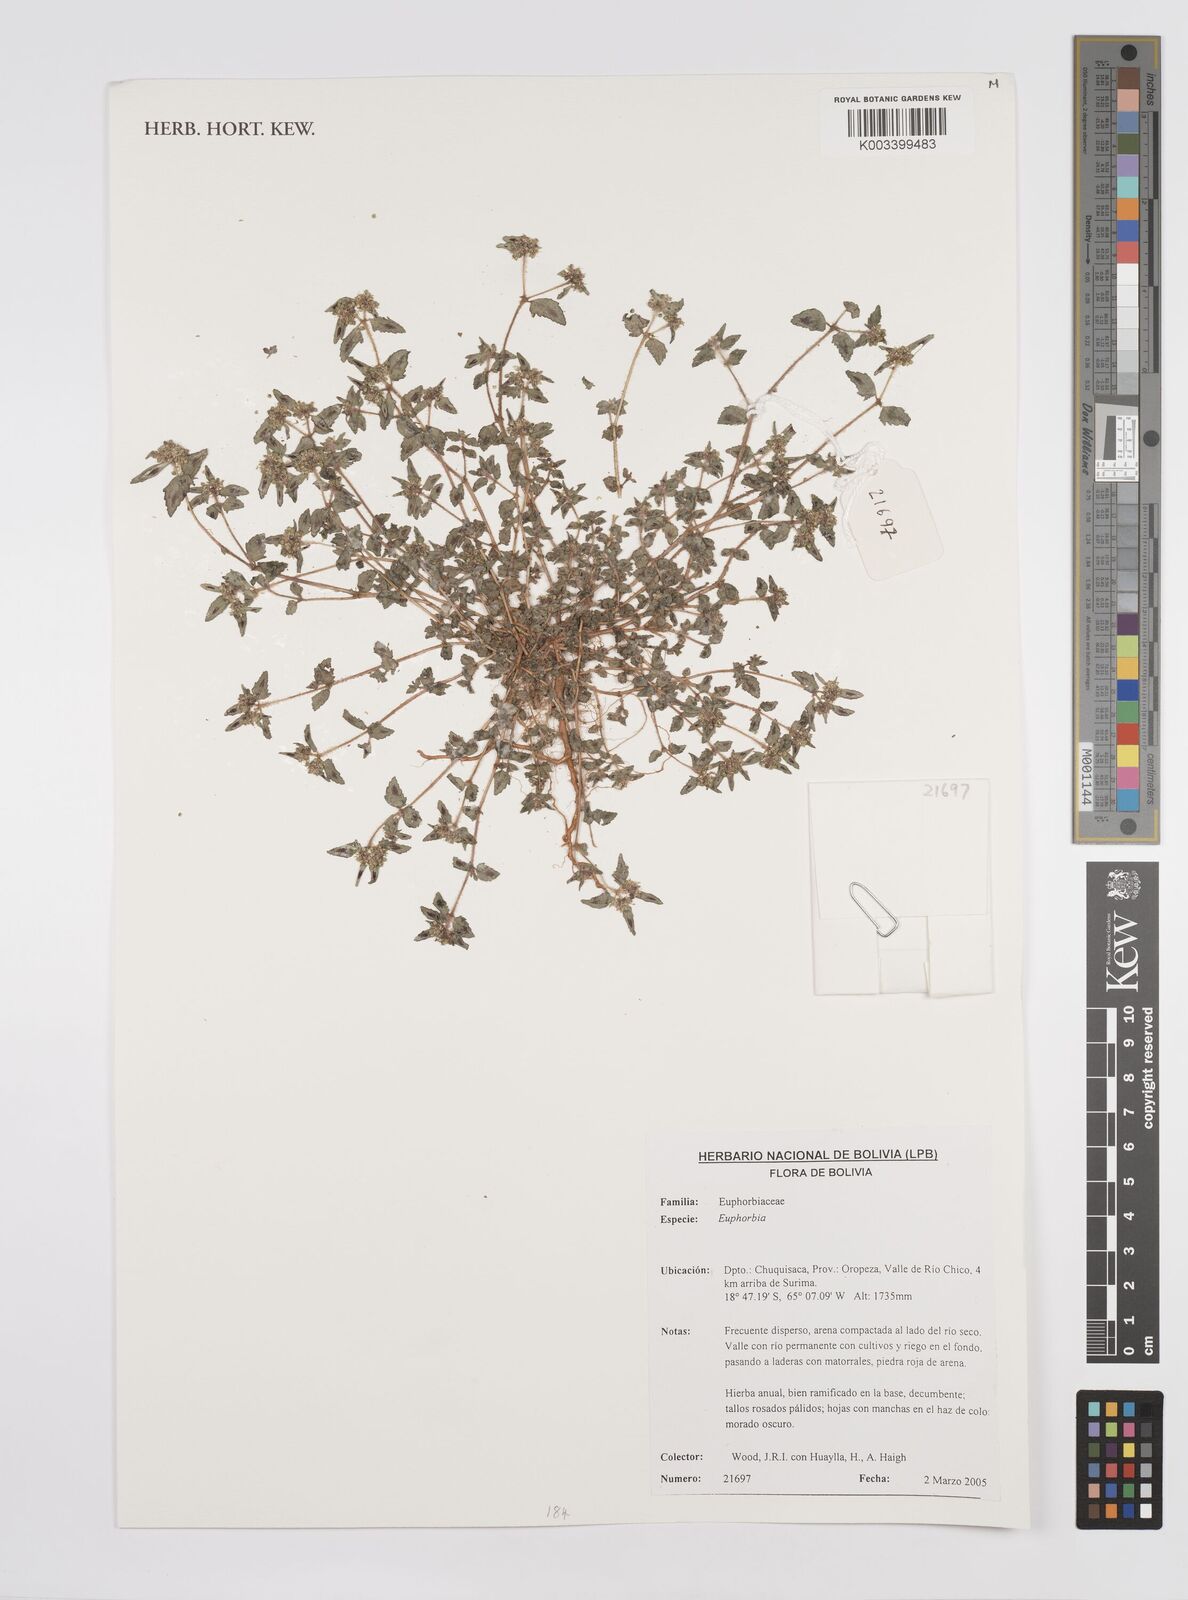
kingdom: Plantae
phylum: Tracheophyta
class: Magnoliopsida
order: Malpighiales
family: Euphorbiaceae
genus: Euphorbia
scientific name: Euphorbia
